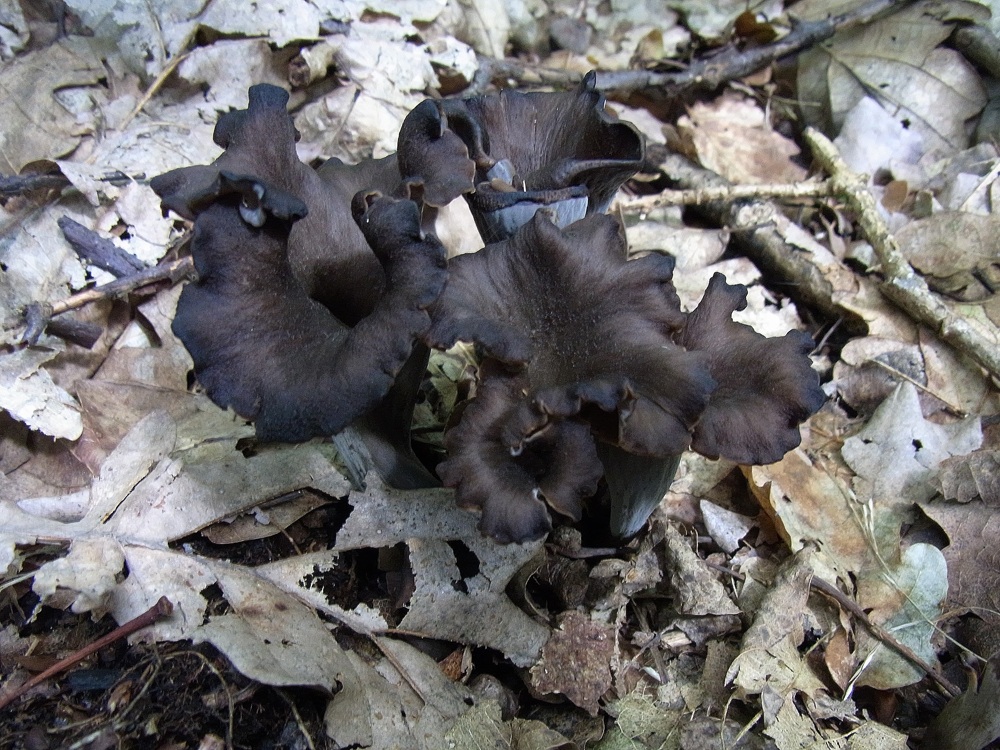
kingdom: Fungi
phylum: Basidiomycota
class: Agaricomycetes
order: Cantharellales
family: Hydnaceae
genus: Craterellus
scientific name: Craterellus cornucopioides
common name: Horn of plenty
